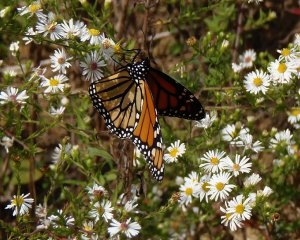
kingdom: Animalia
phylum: Arthropoda
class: Insecta
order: Lepidoptera
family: Nymphalidae
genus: Danaus
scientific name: Danaus plexippus
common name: Monarch
